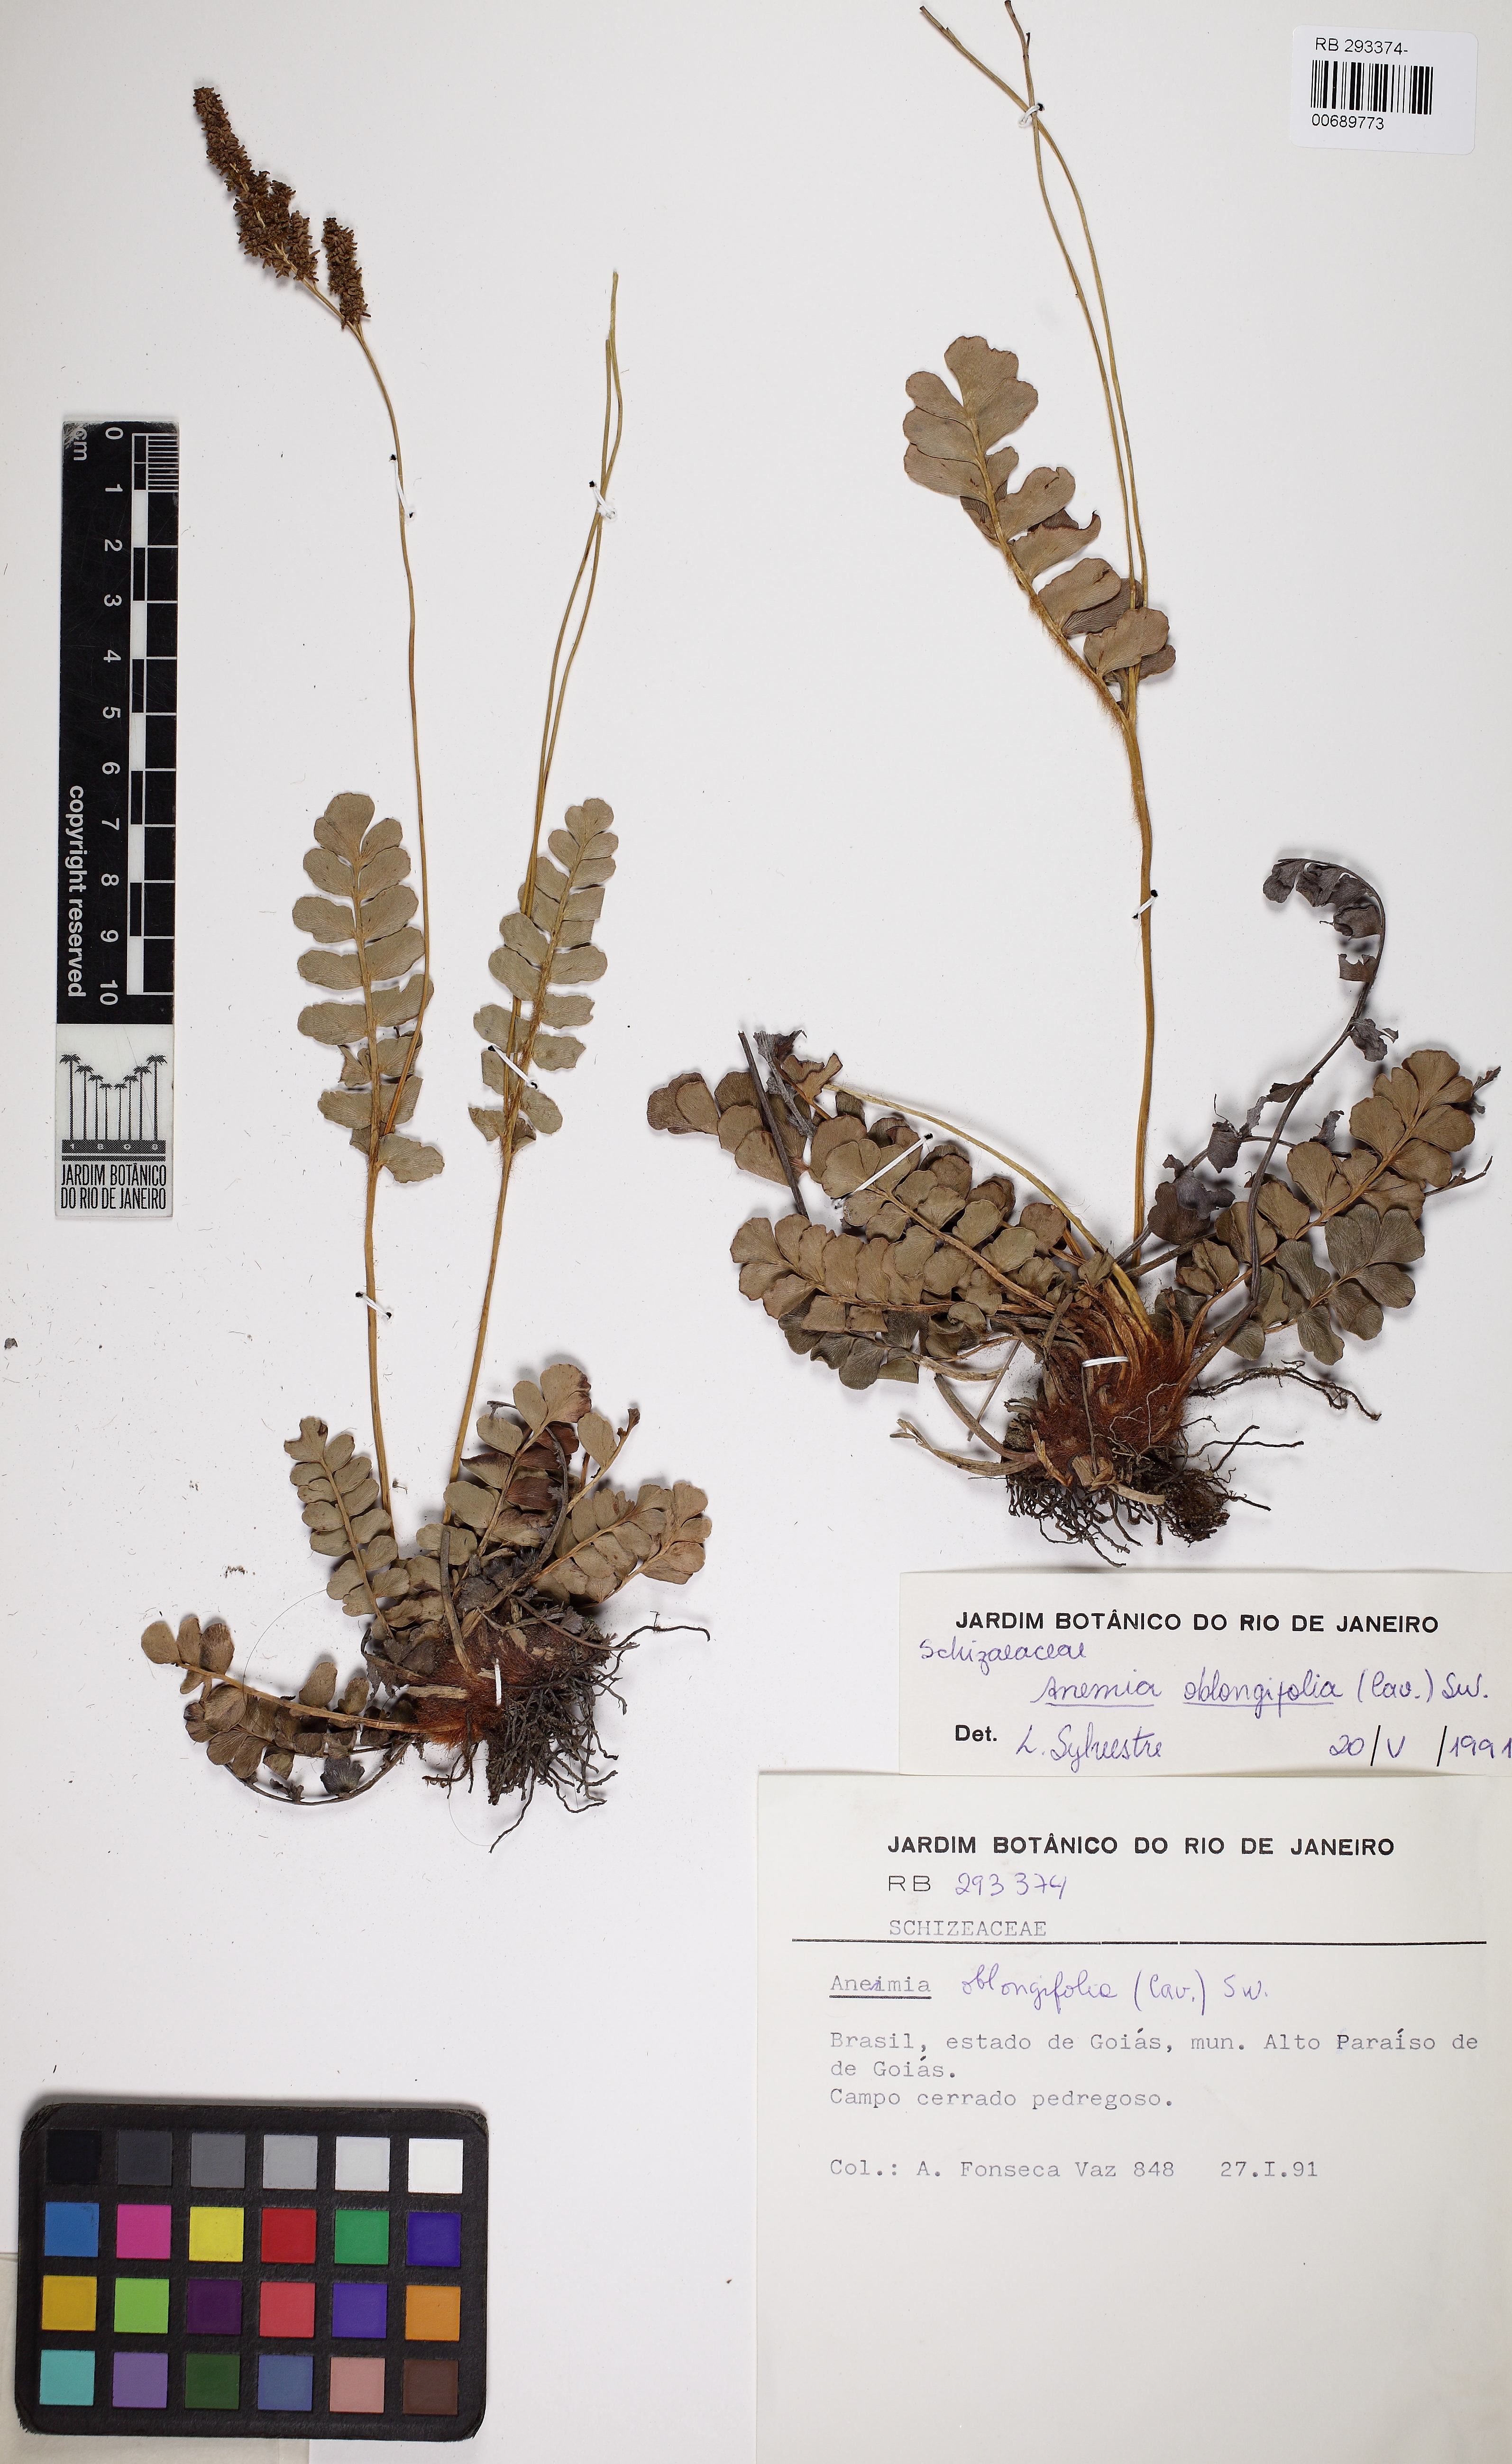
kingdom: Plantae
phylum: Tracheophyta
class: Polypodiopsida
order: Schizaeales
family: Anemiaceae
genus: Anemia
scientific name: Anemia oblongifolia
